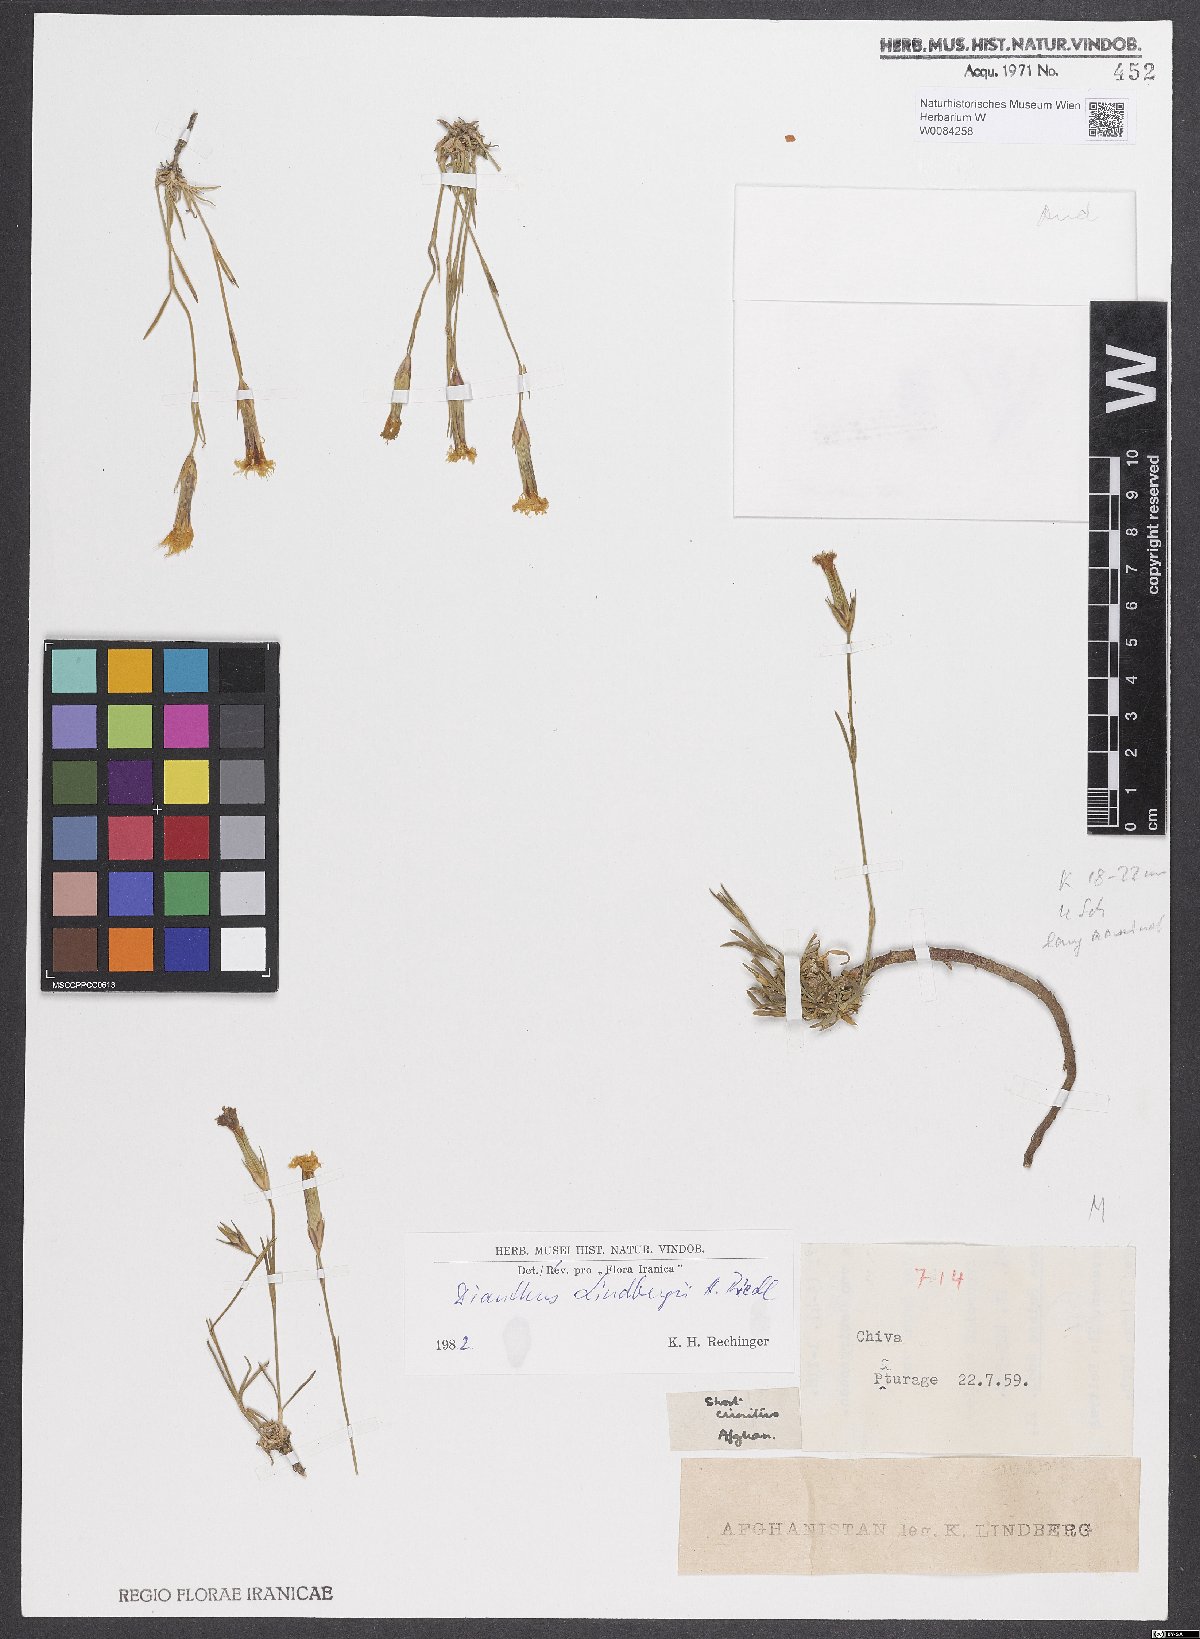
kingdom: Plantae
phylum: Tracheophyta
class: Magnoliopsida
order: Caryophyllales
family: Caryophyllaceae
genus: Dianthus
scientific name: Dianthus lindbergii
